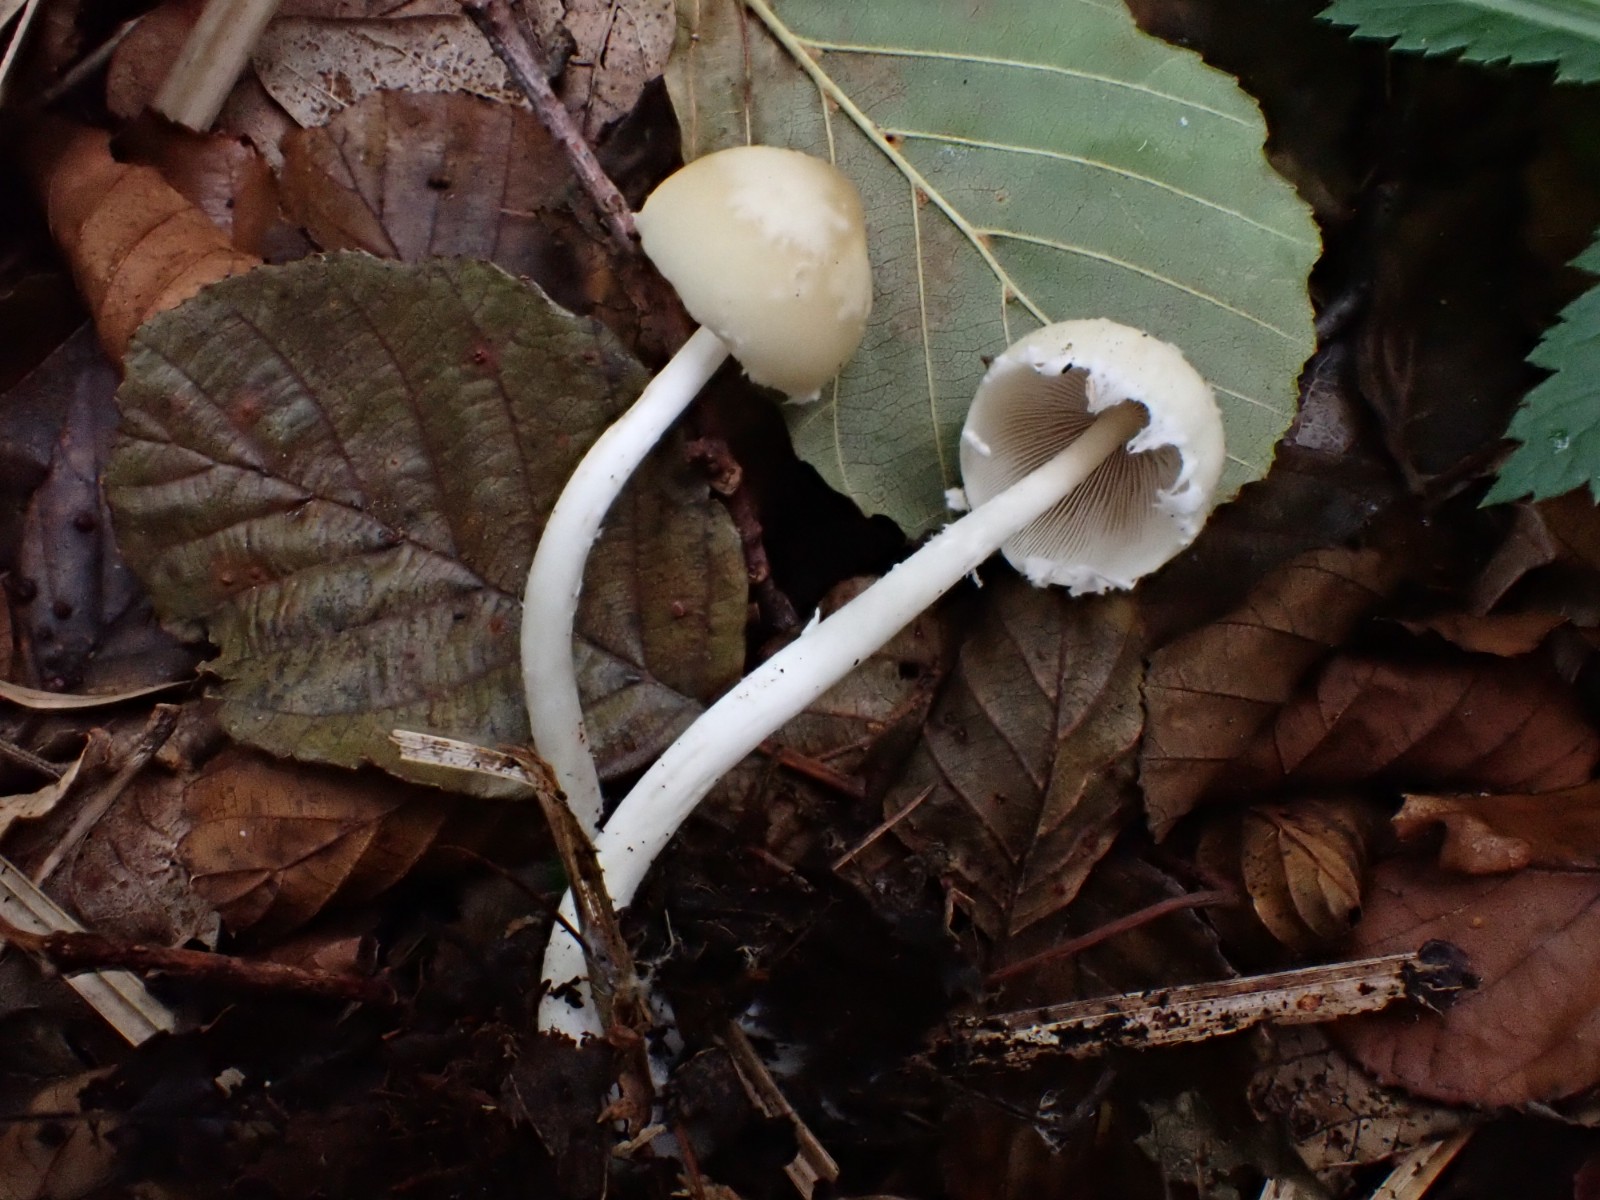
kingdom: Fungi
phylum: Basidiomycota
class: Agaricomycetes
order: Agaricales
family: Psathyrellaceae
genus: Candolleomyces
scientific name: Candolleomyces candolleanus
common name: Candolles mørkhat
